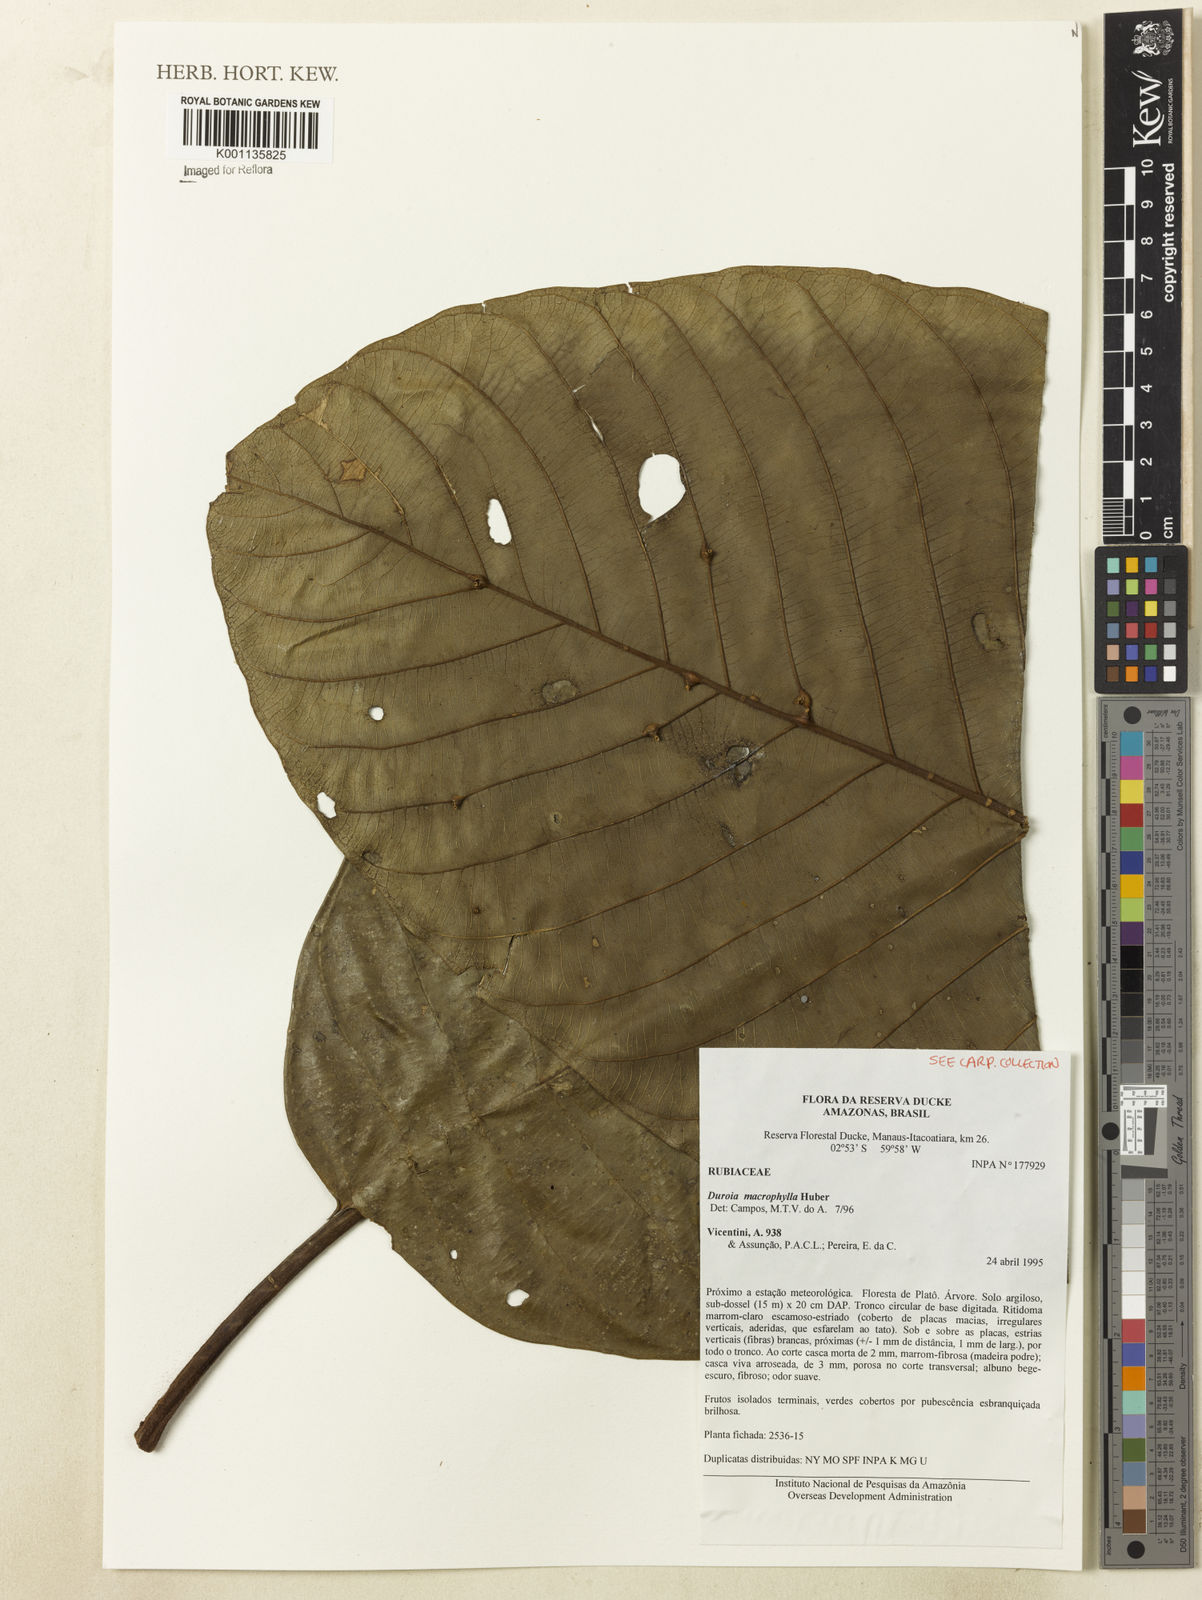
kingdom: Plantae
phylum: Tracheophyta
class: Magnoliopsida
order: Gentianales
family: Rubiaceae
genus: Duroia
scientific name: Duroia macrophylla
